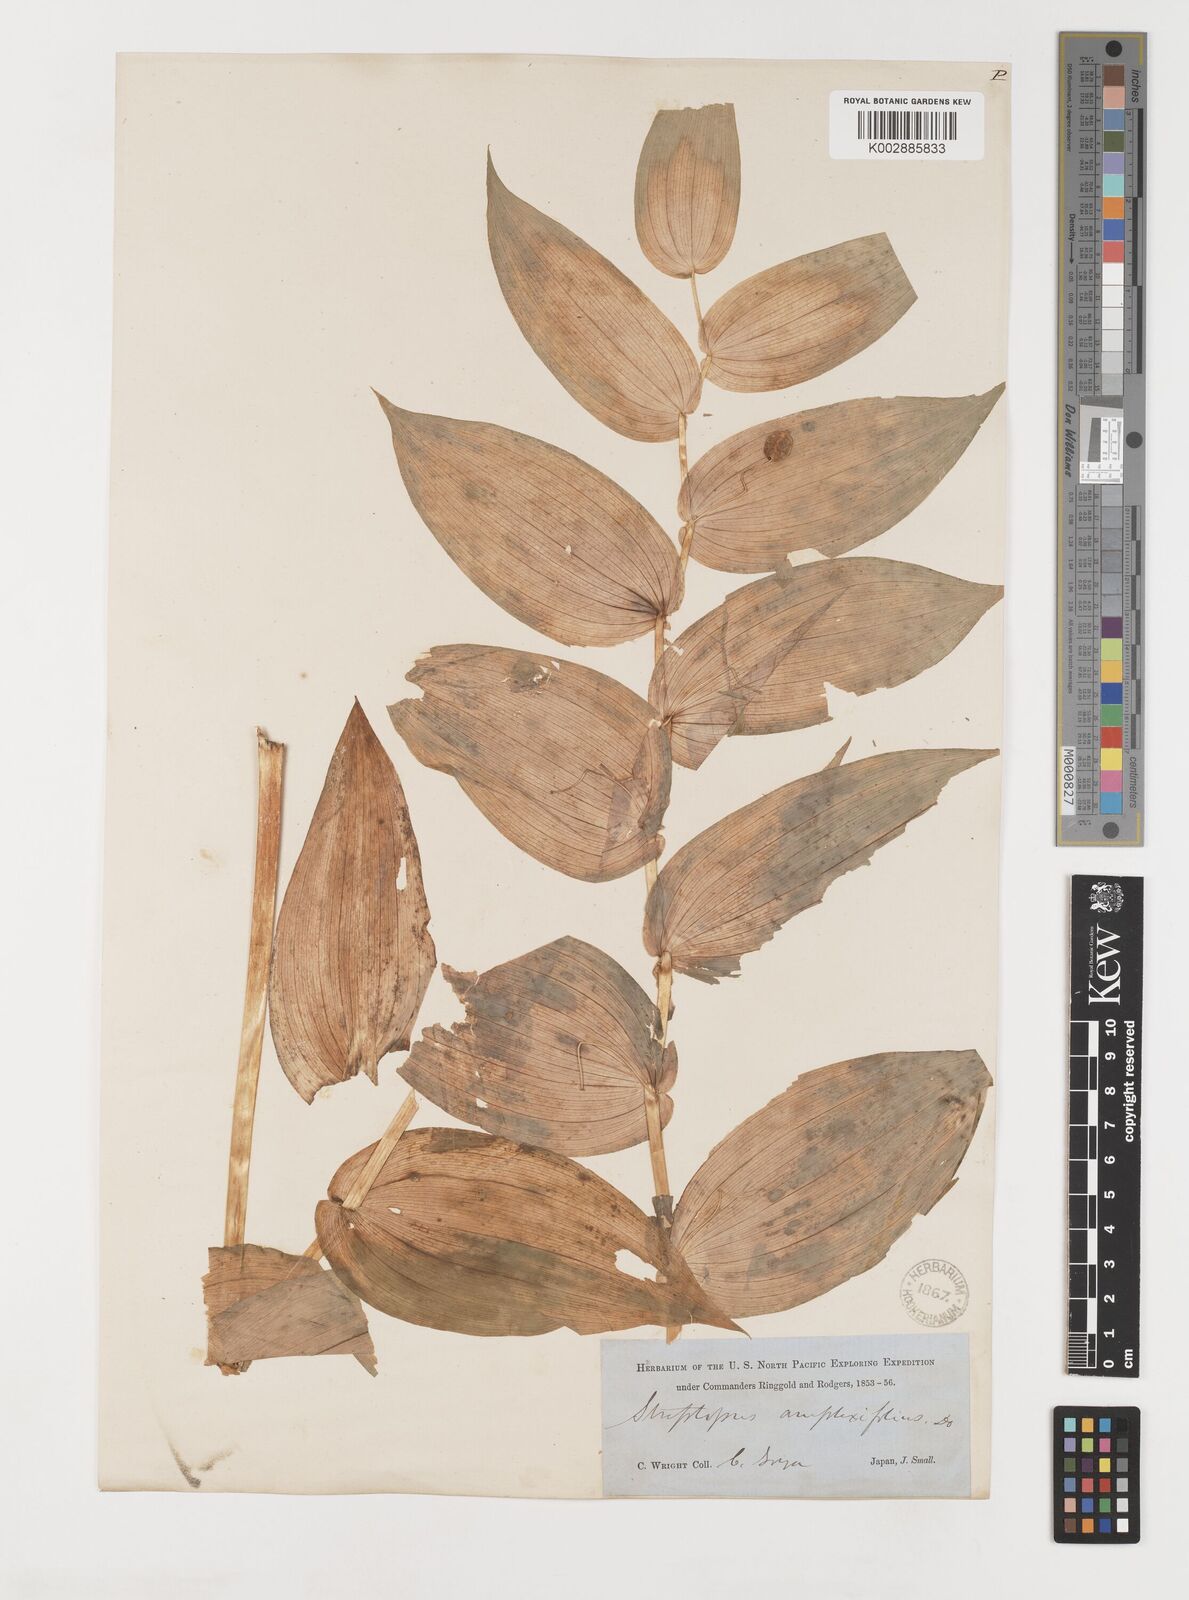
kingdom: Plantae
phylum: Tracheophyta
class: Liliopsida
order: Liliales
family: Liliaceae
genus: Streptopus
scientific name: Streptopus amplexifolius
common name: Clasp twisted stalk
